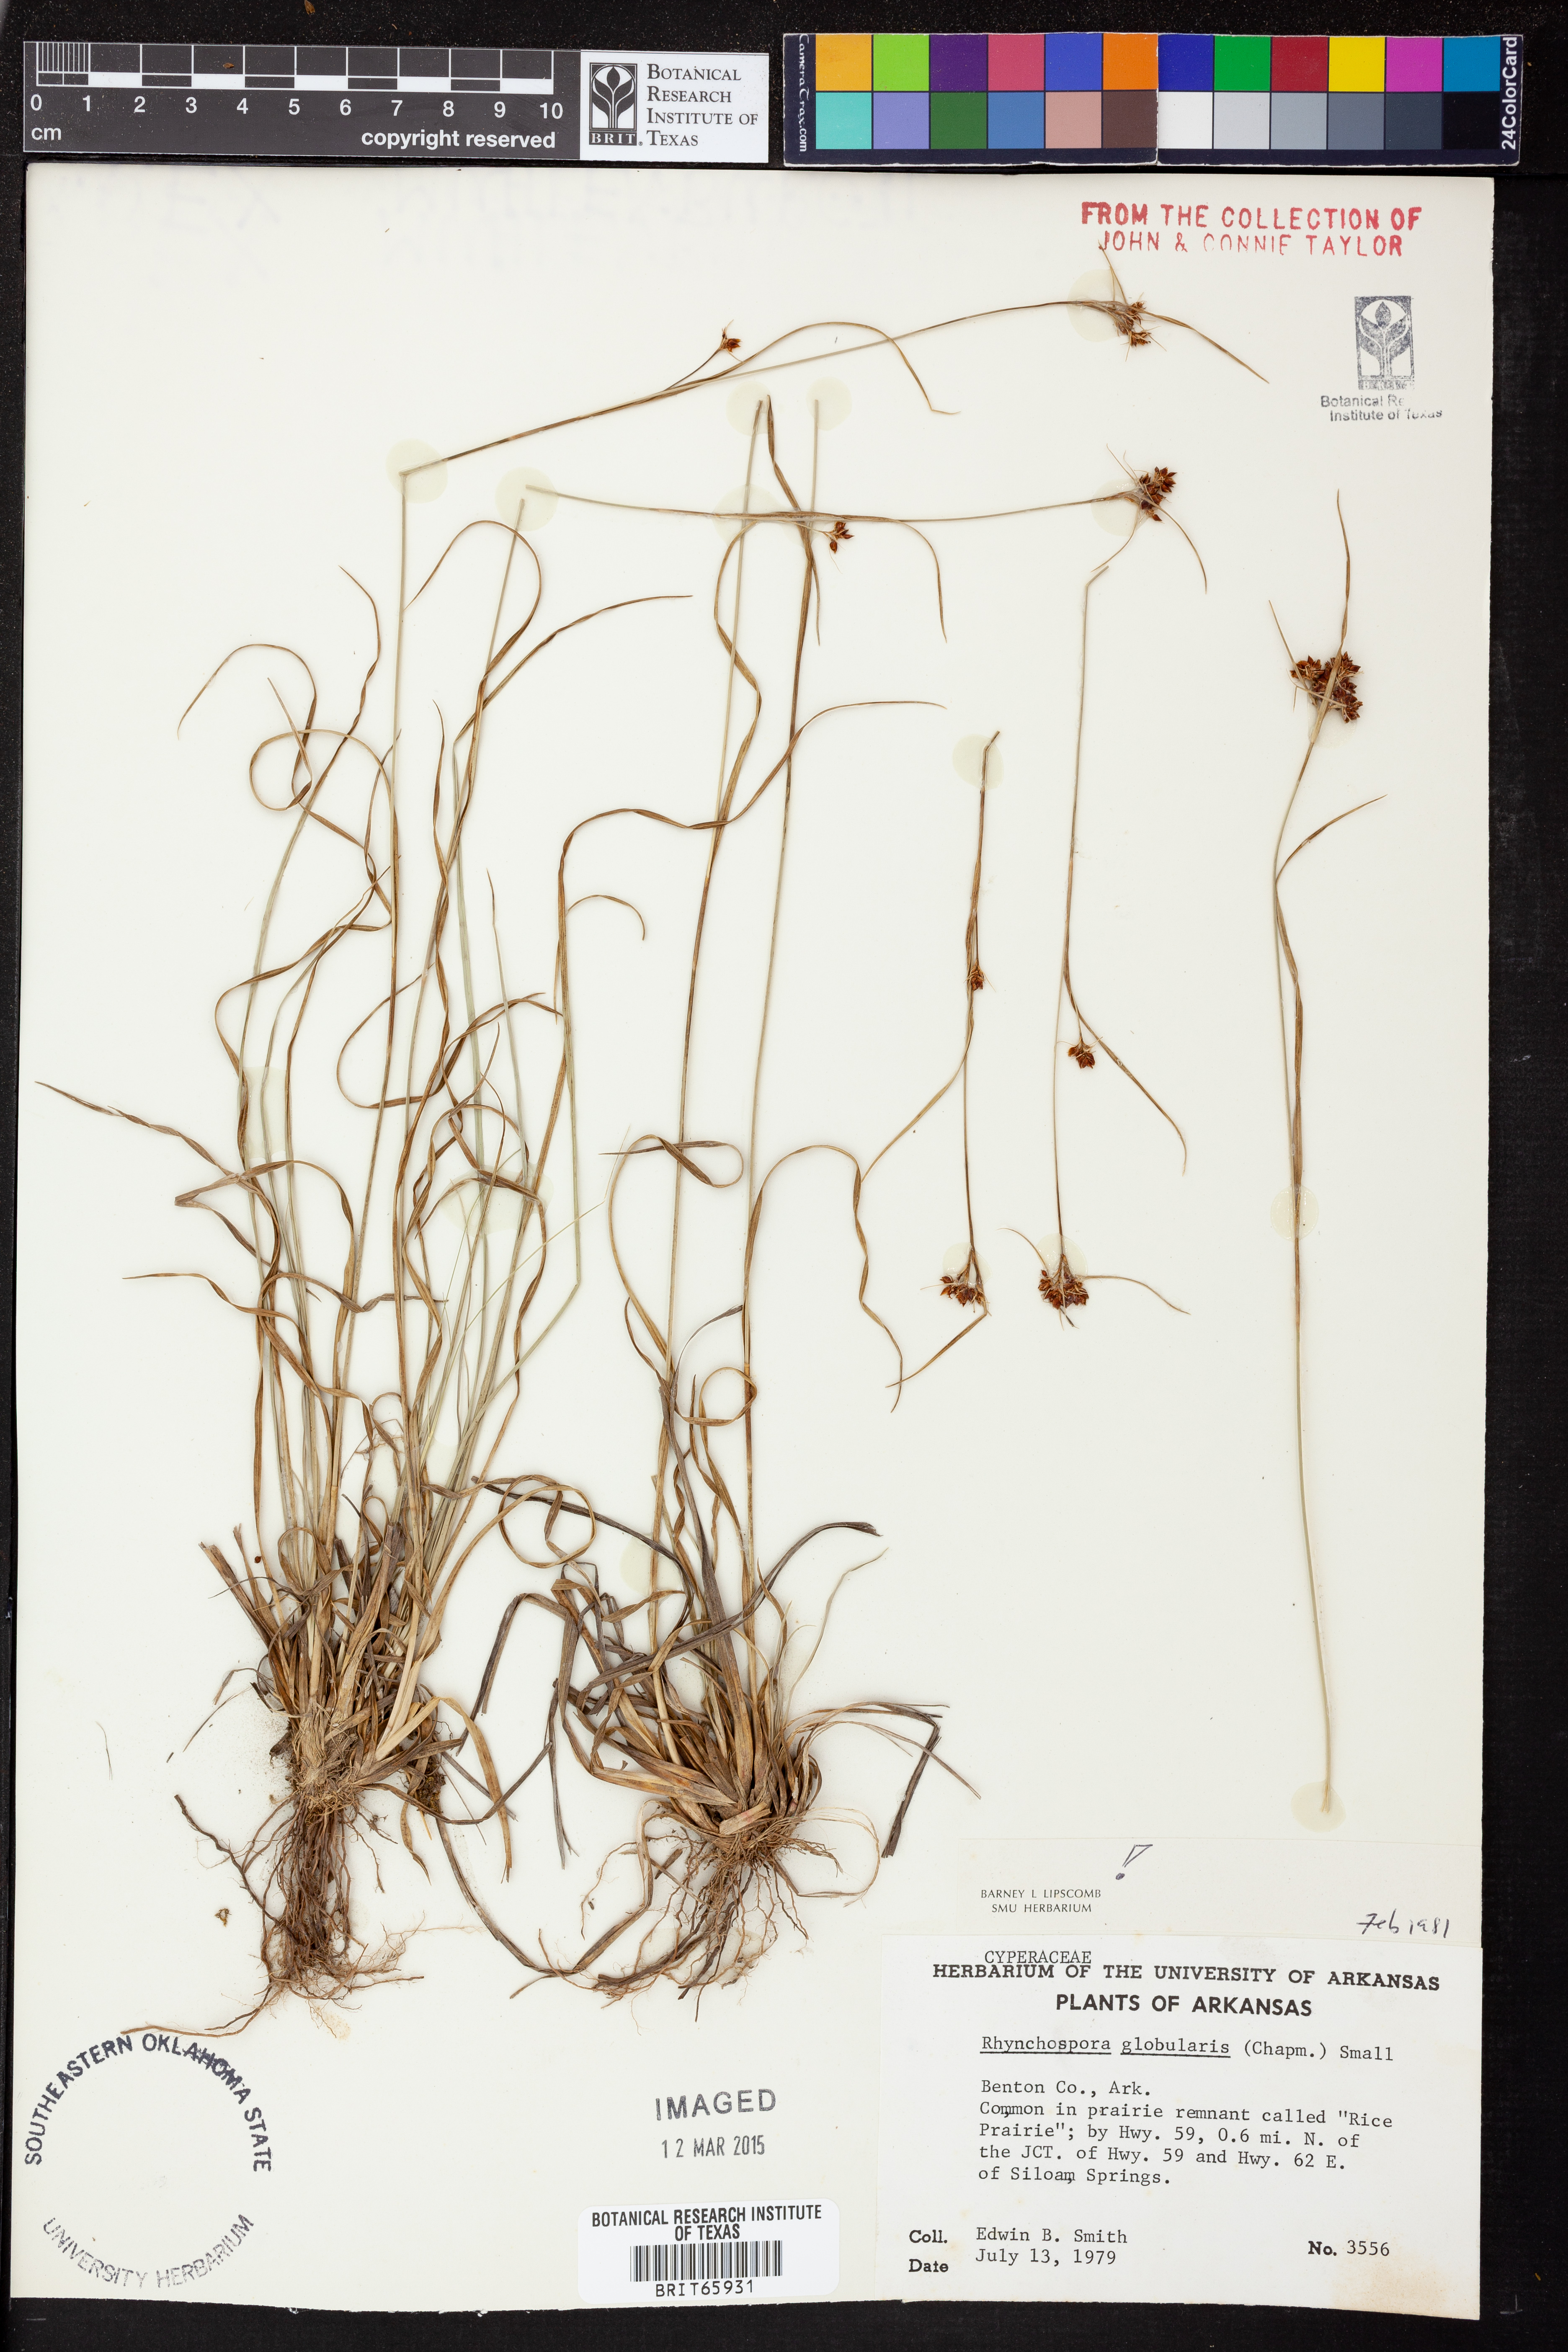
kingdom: Plantae
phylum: Tracheophyta
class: Liliopsida
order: Poales
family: Cyperaceae
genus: Rhynchospora
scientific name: Rhynchospora globularis
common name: Globe beaksedge
